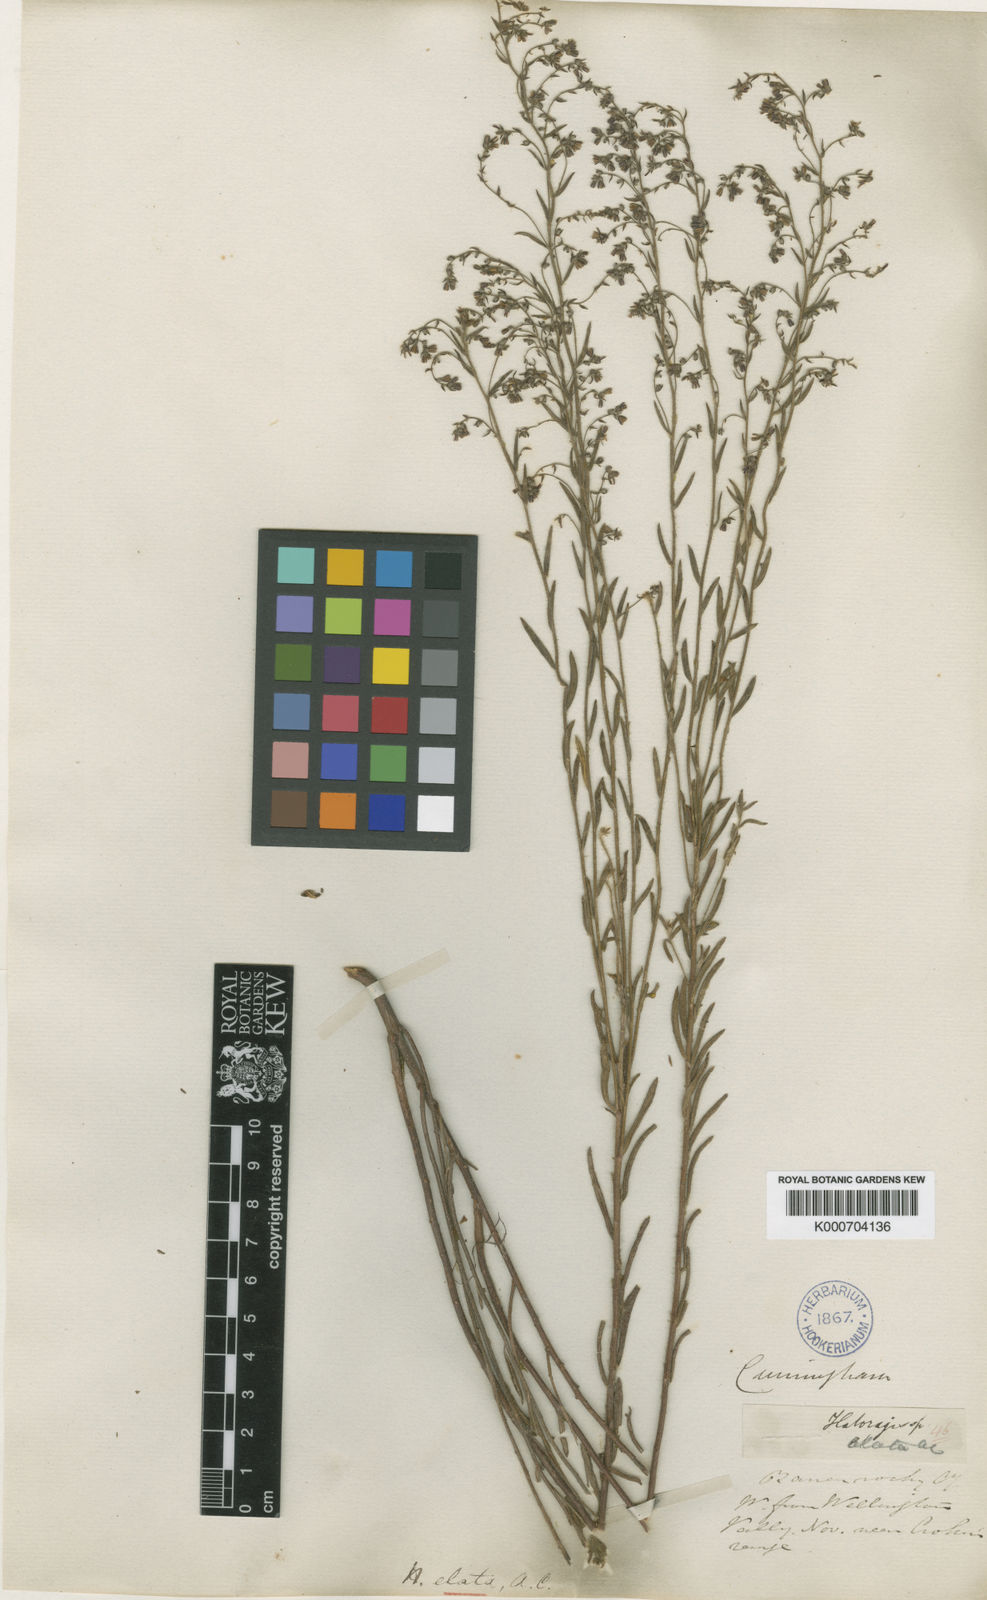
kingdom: Plantae
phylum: Tracheophyta
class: Magnoliopsida
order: Saxifragales
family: Haloragaceae
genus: Gonocarpus
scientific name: Gonocarpus elatus
